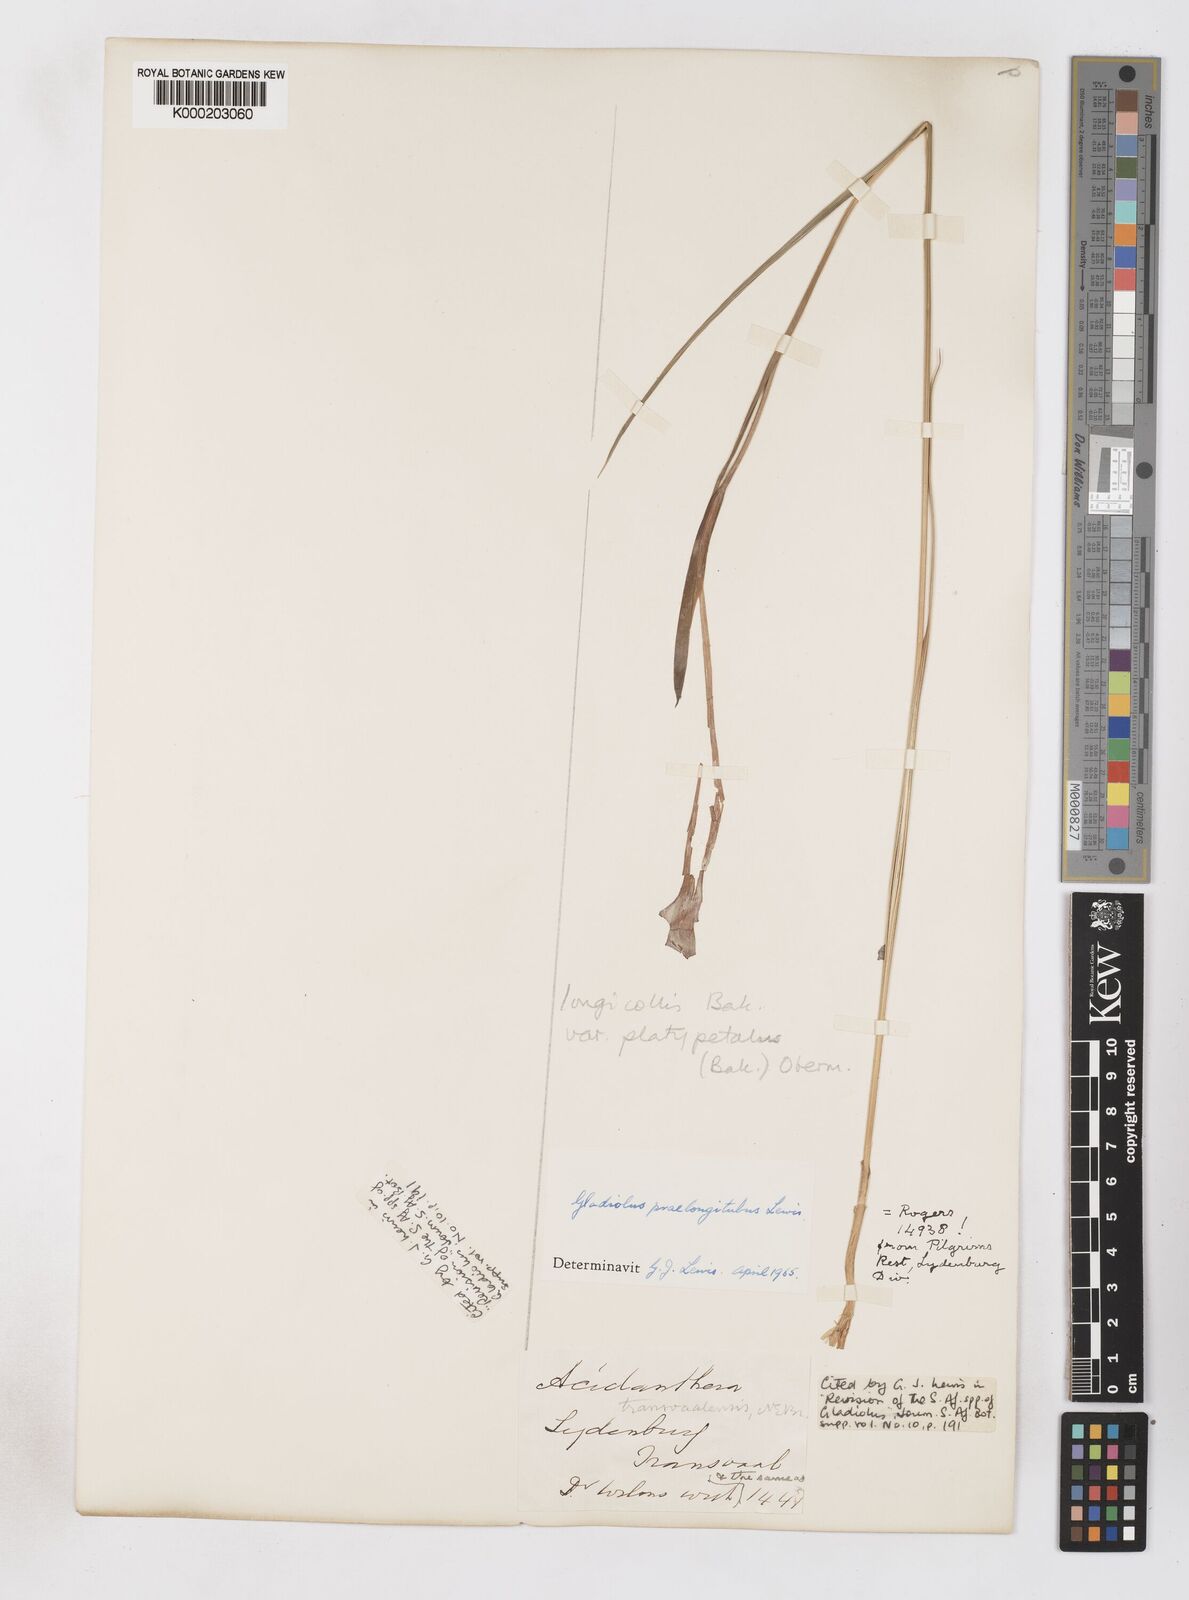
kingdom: Plantae
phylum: Tracheophyta
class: Liliopsida
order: Asparagales
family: Iridaceae
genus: Gladiolus
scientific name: Gladiolus longicollis
